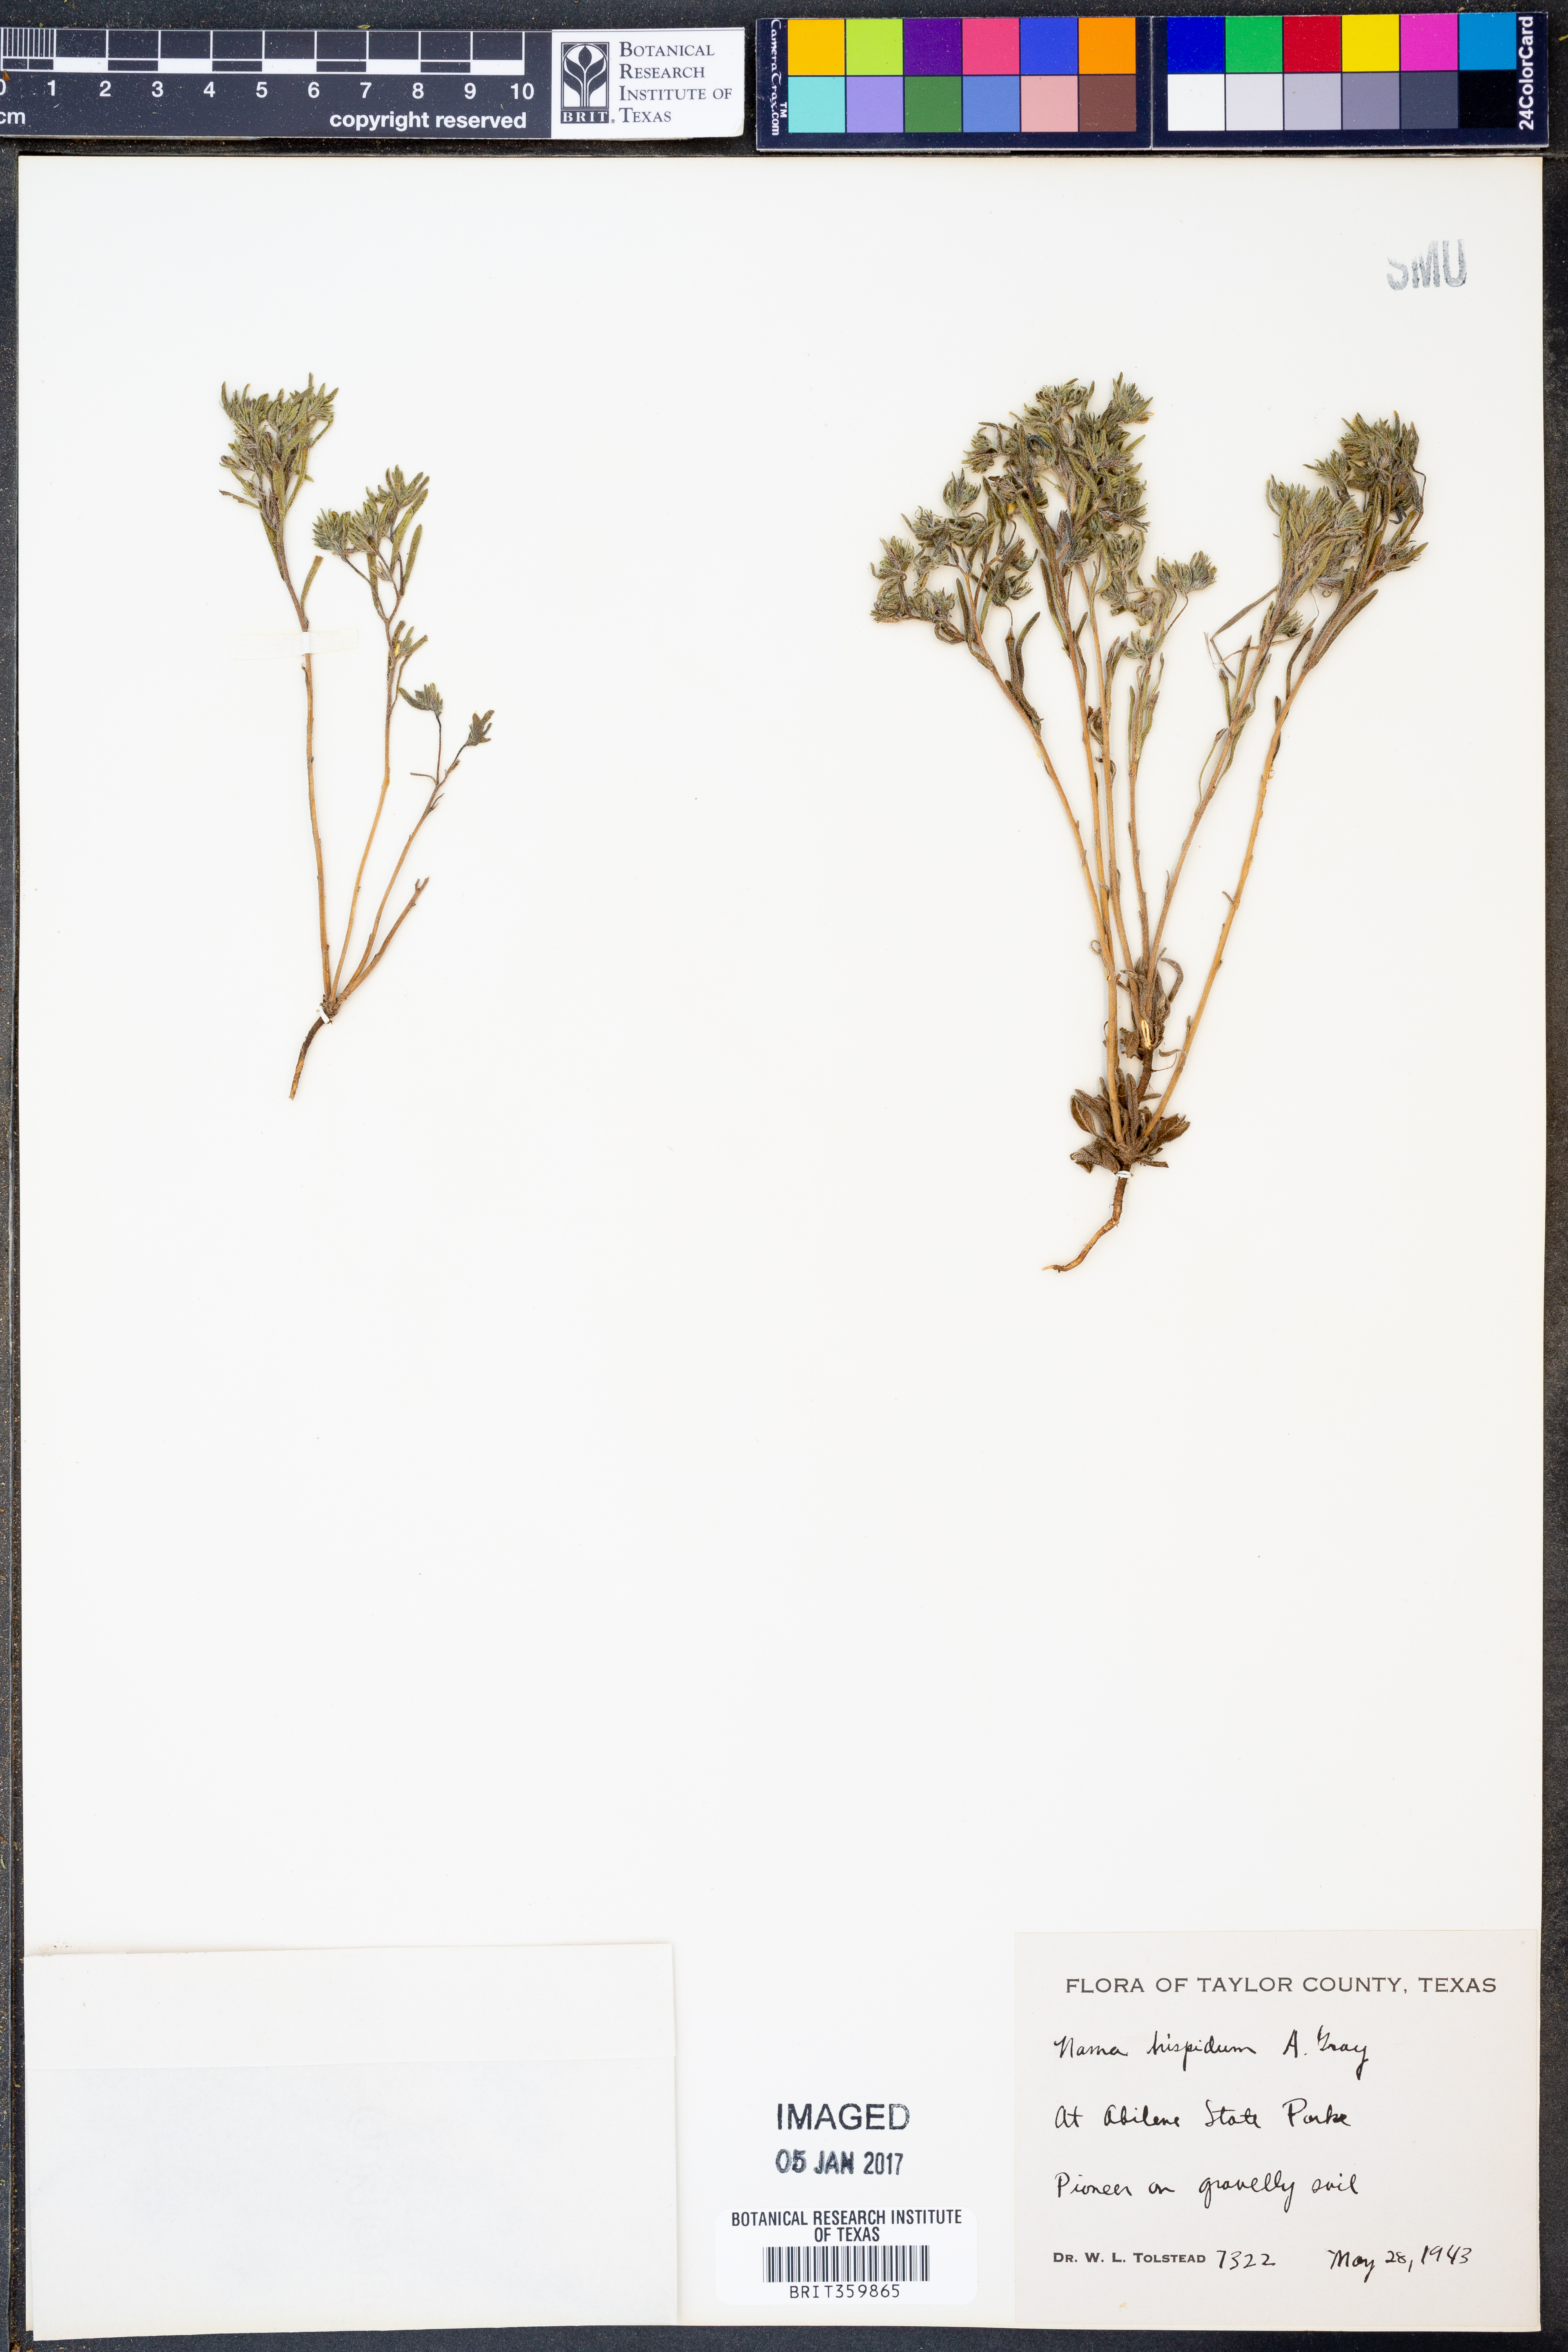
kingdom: Plantae
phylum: Tracheophyta
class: Magnoliopsida
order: Boraginales
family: Namaceae
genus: Nama
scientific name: Nama hispida
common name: Bristly nama
